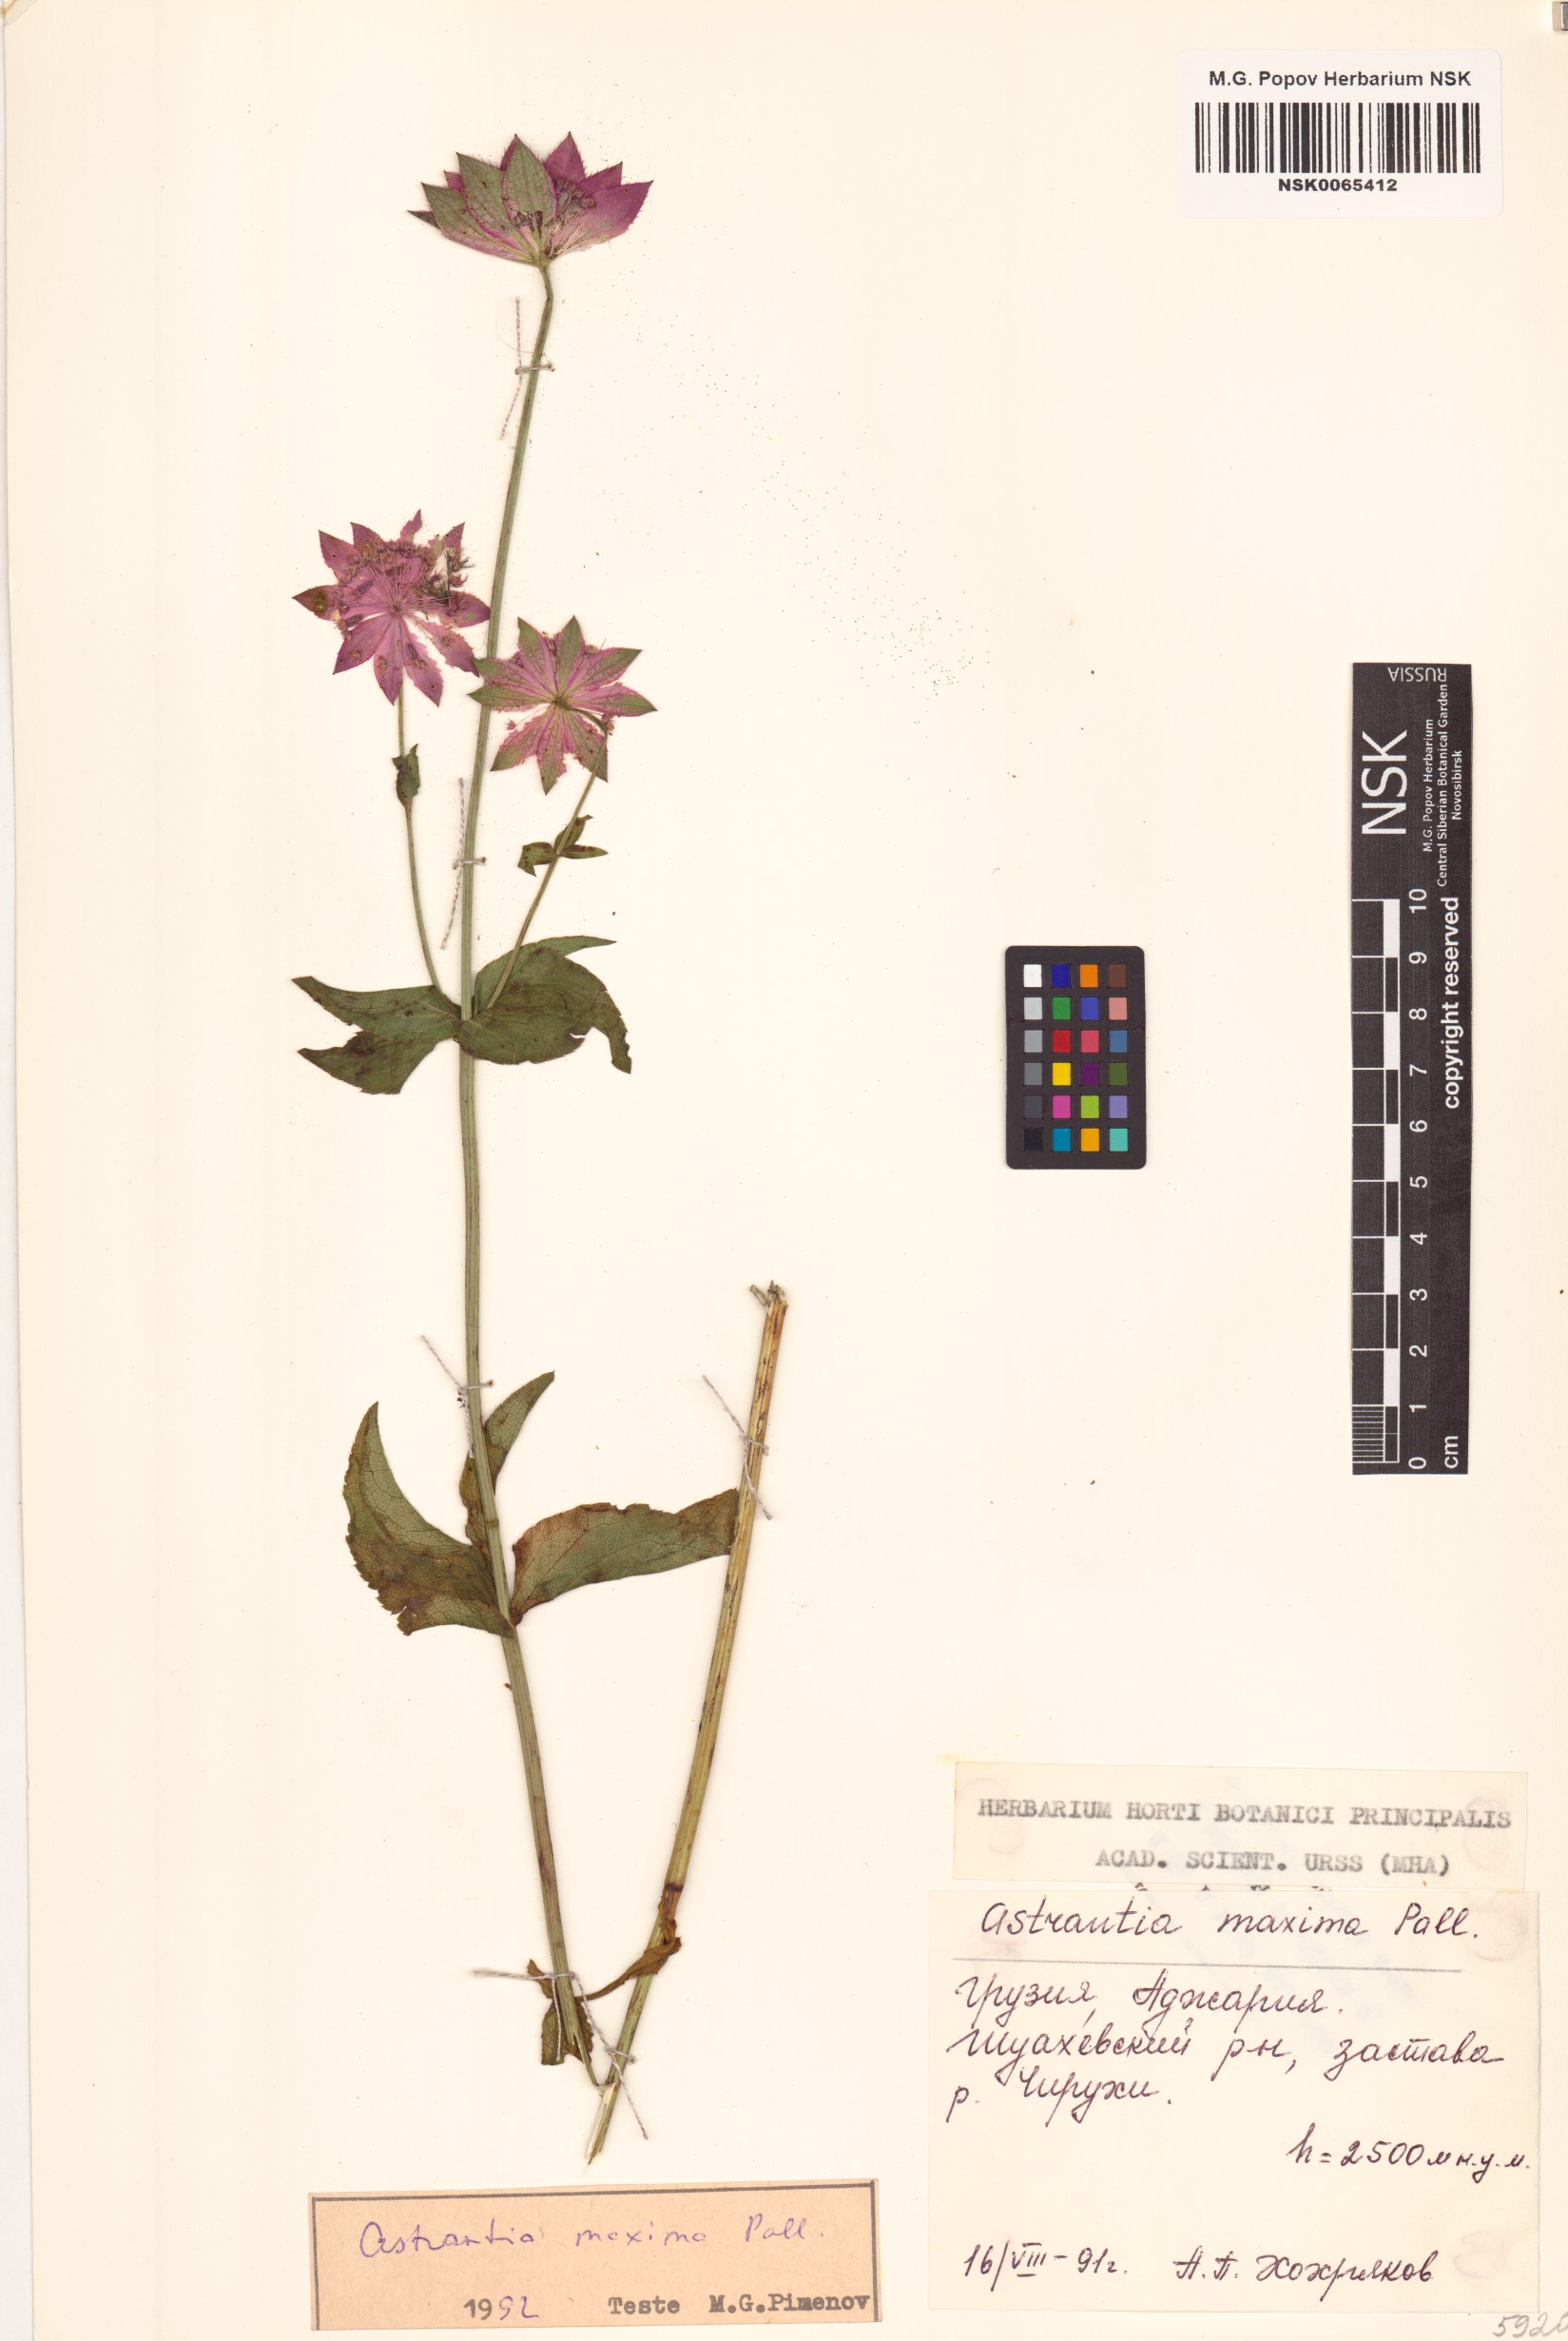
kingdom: Plantae
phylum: Tracheophyta
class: Magnoliopsida
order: Apiales
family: Apiaceae
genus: Astrantia
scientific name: Astrantia maxima
